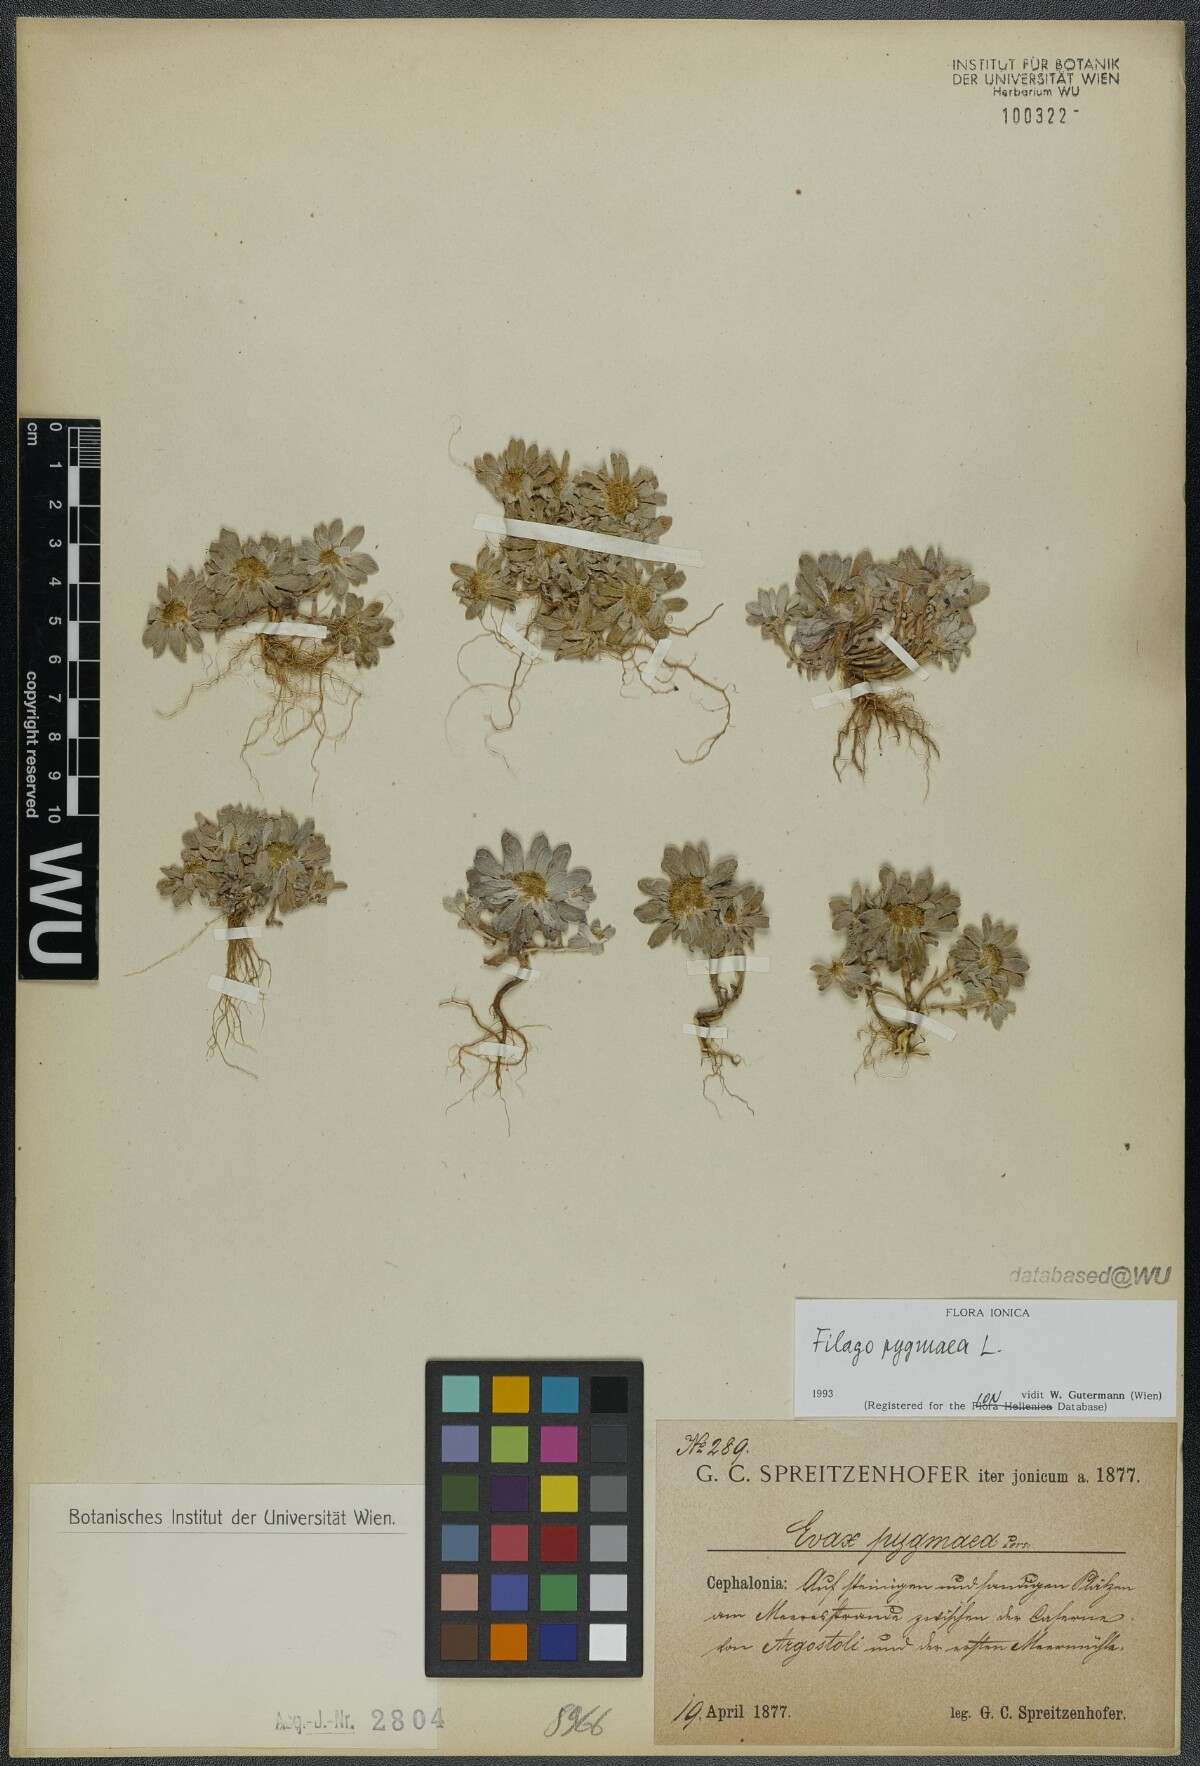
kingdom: Plantae
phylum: Tracheophyta
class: Magnoliopsida
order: Asterales
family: Asteraceae
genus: Filago
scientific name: Filago pygmaea
